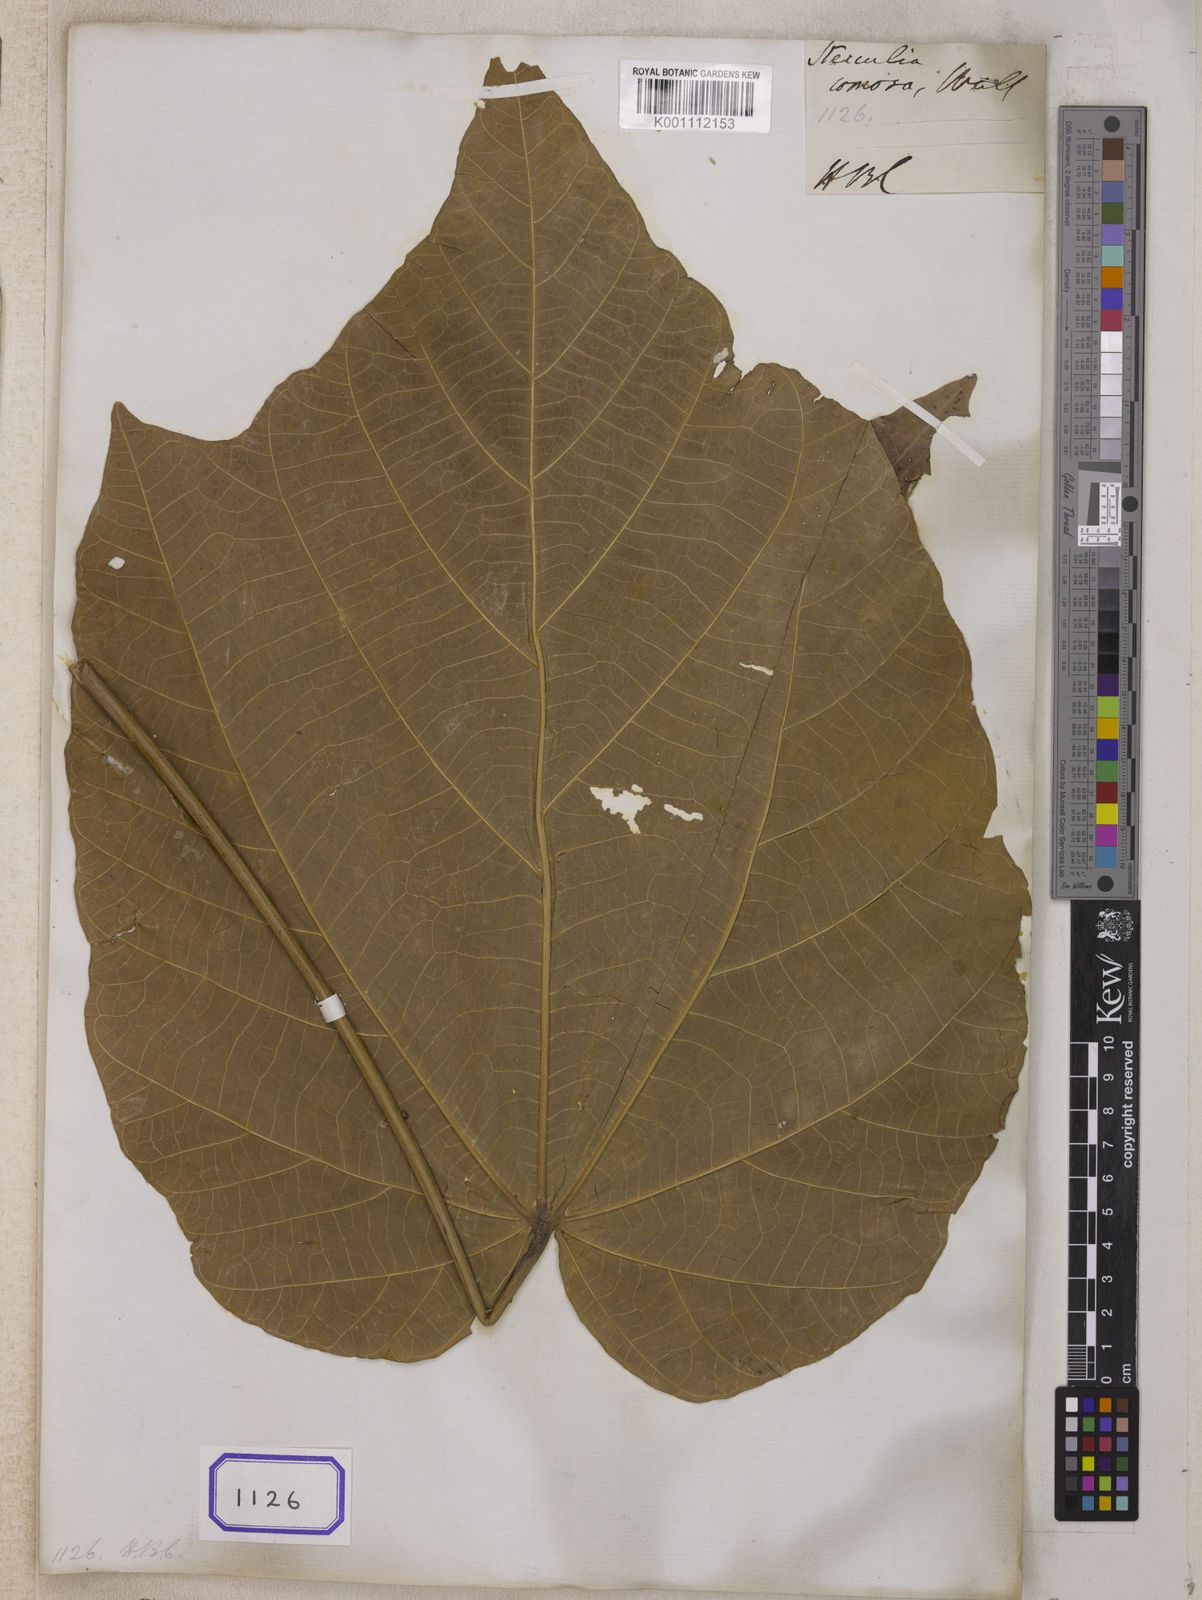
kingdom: Plantae
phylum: Tracheophyta
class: Magnoliopsida
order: Malvales
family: Malvaceae
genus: Sterculia
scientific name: Sterculia comosa
